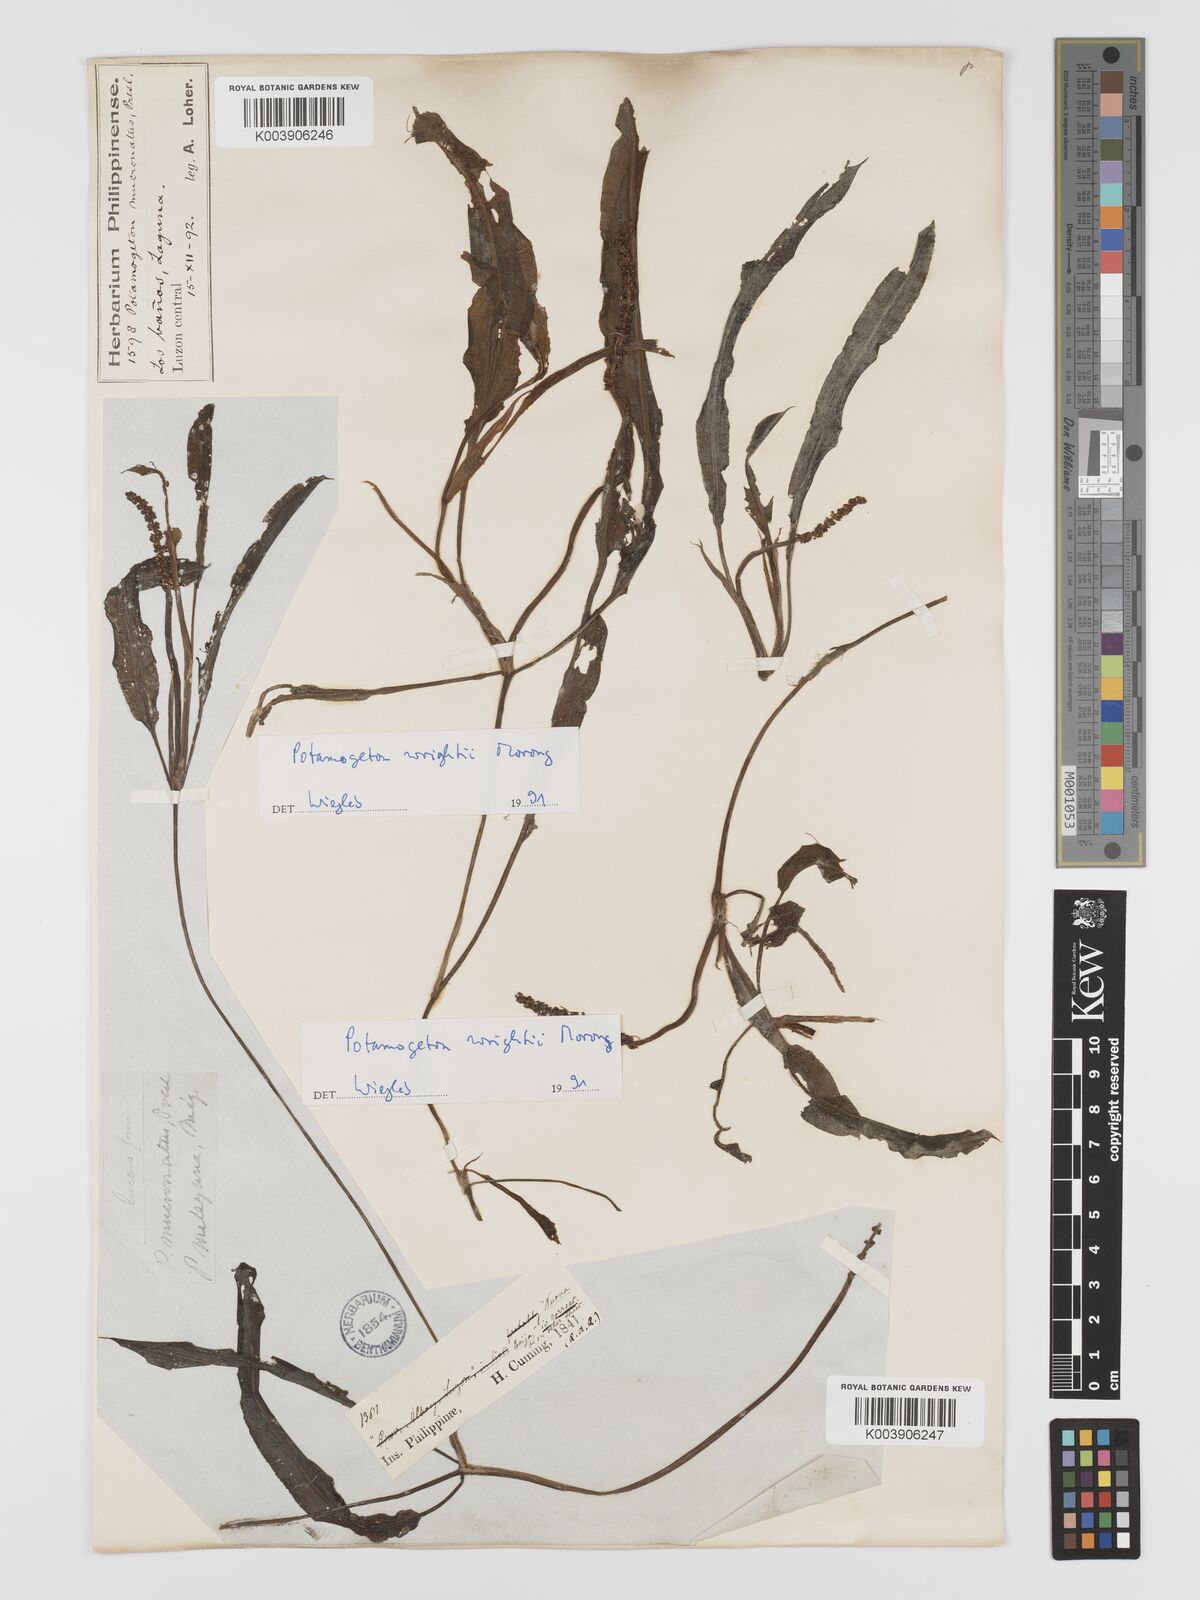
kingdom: Plantae
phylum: Tracheophyta
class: Liliopsida
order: Alismatales
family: Potamogetonaceae
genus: Potamogeton
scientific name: Potamogeton wrightii
